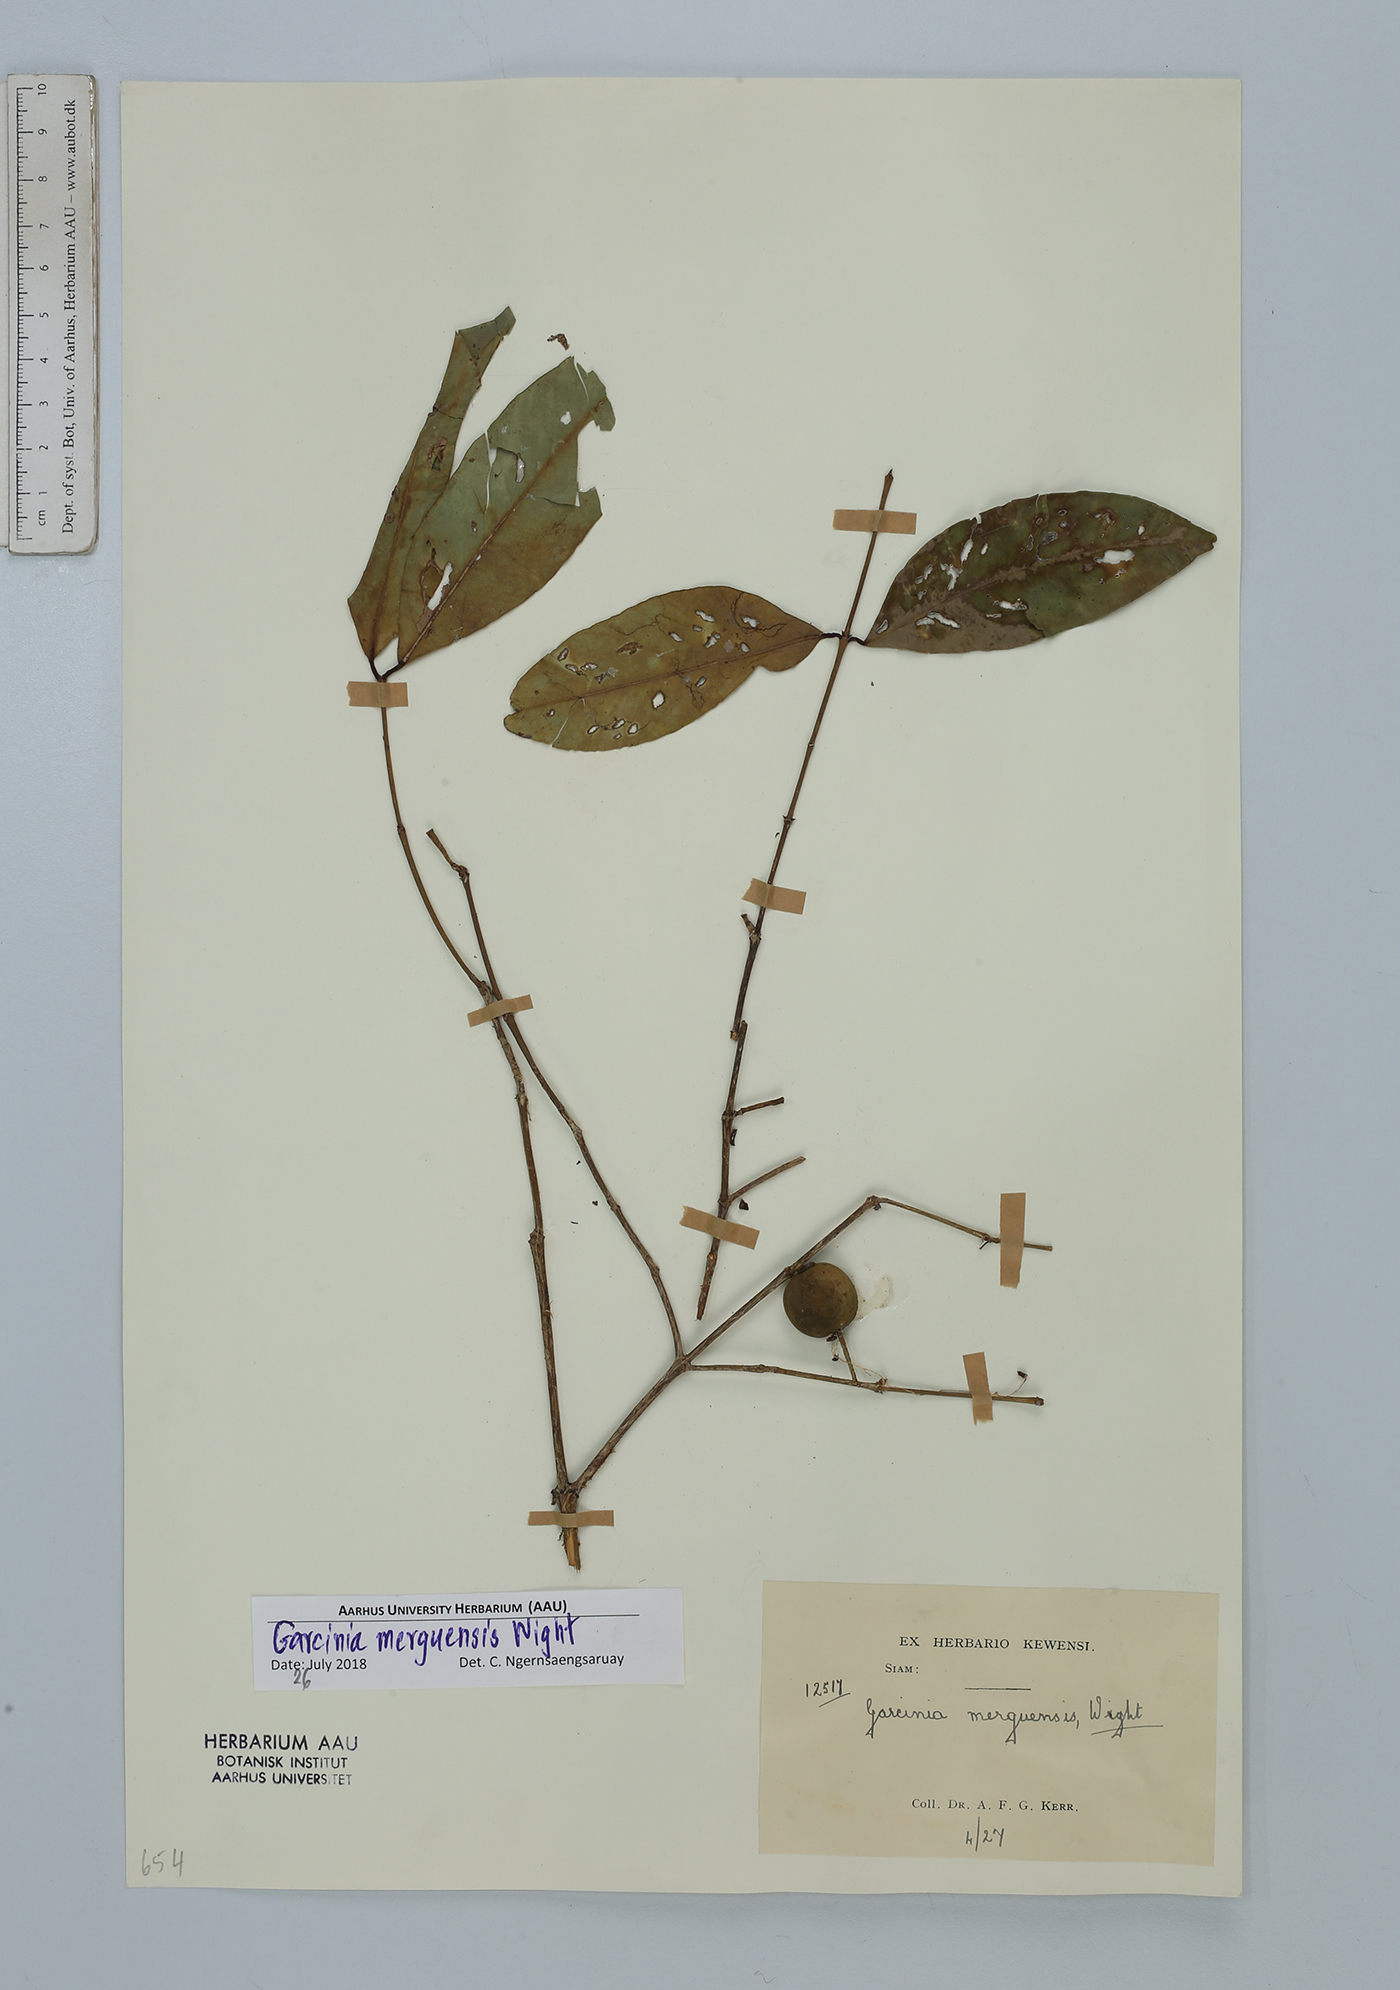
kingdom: Plantae
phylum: Tracheophyta
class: Magnoliopsida
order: Malpighiales
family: Clusiaceae
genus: Garcinia
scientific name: Garcinia merguensis
